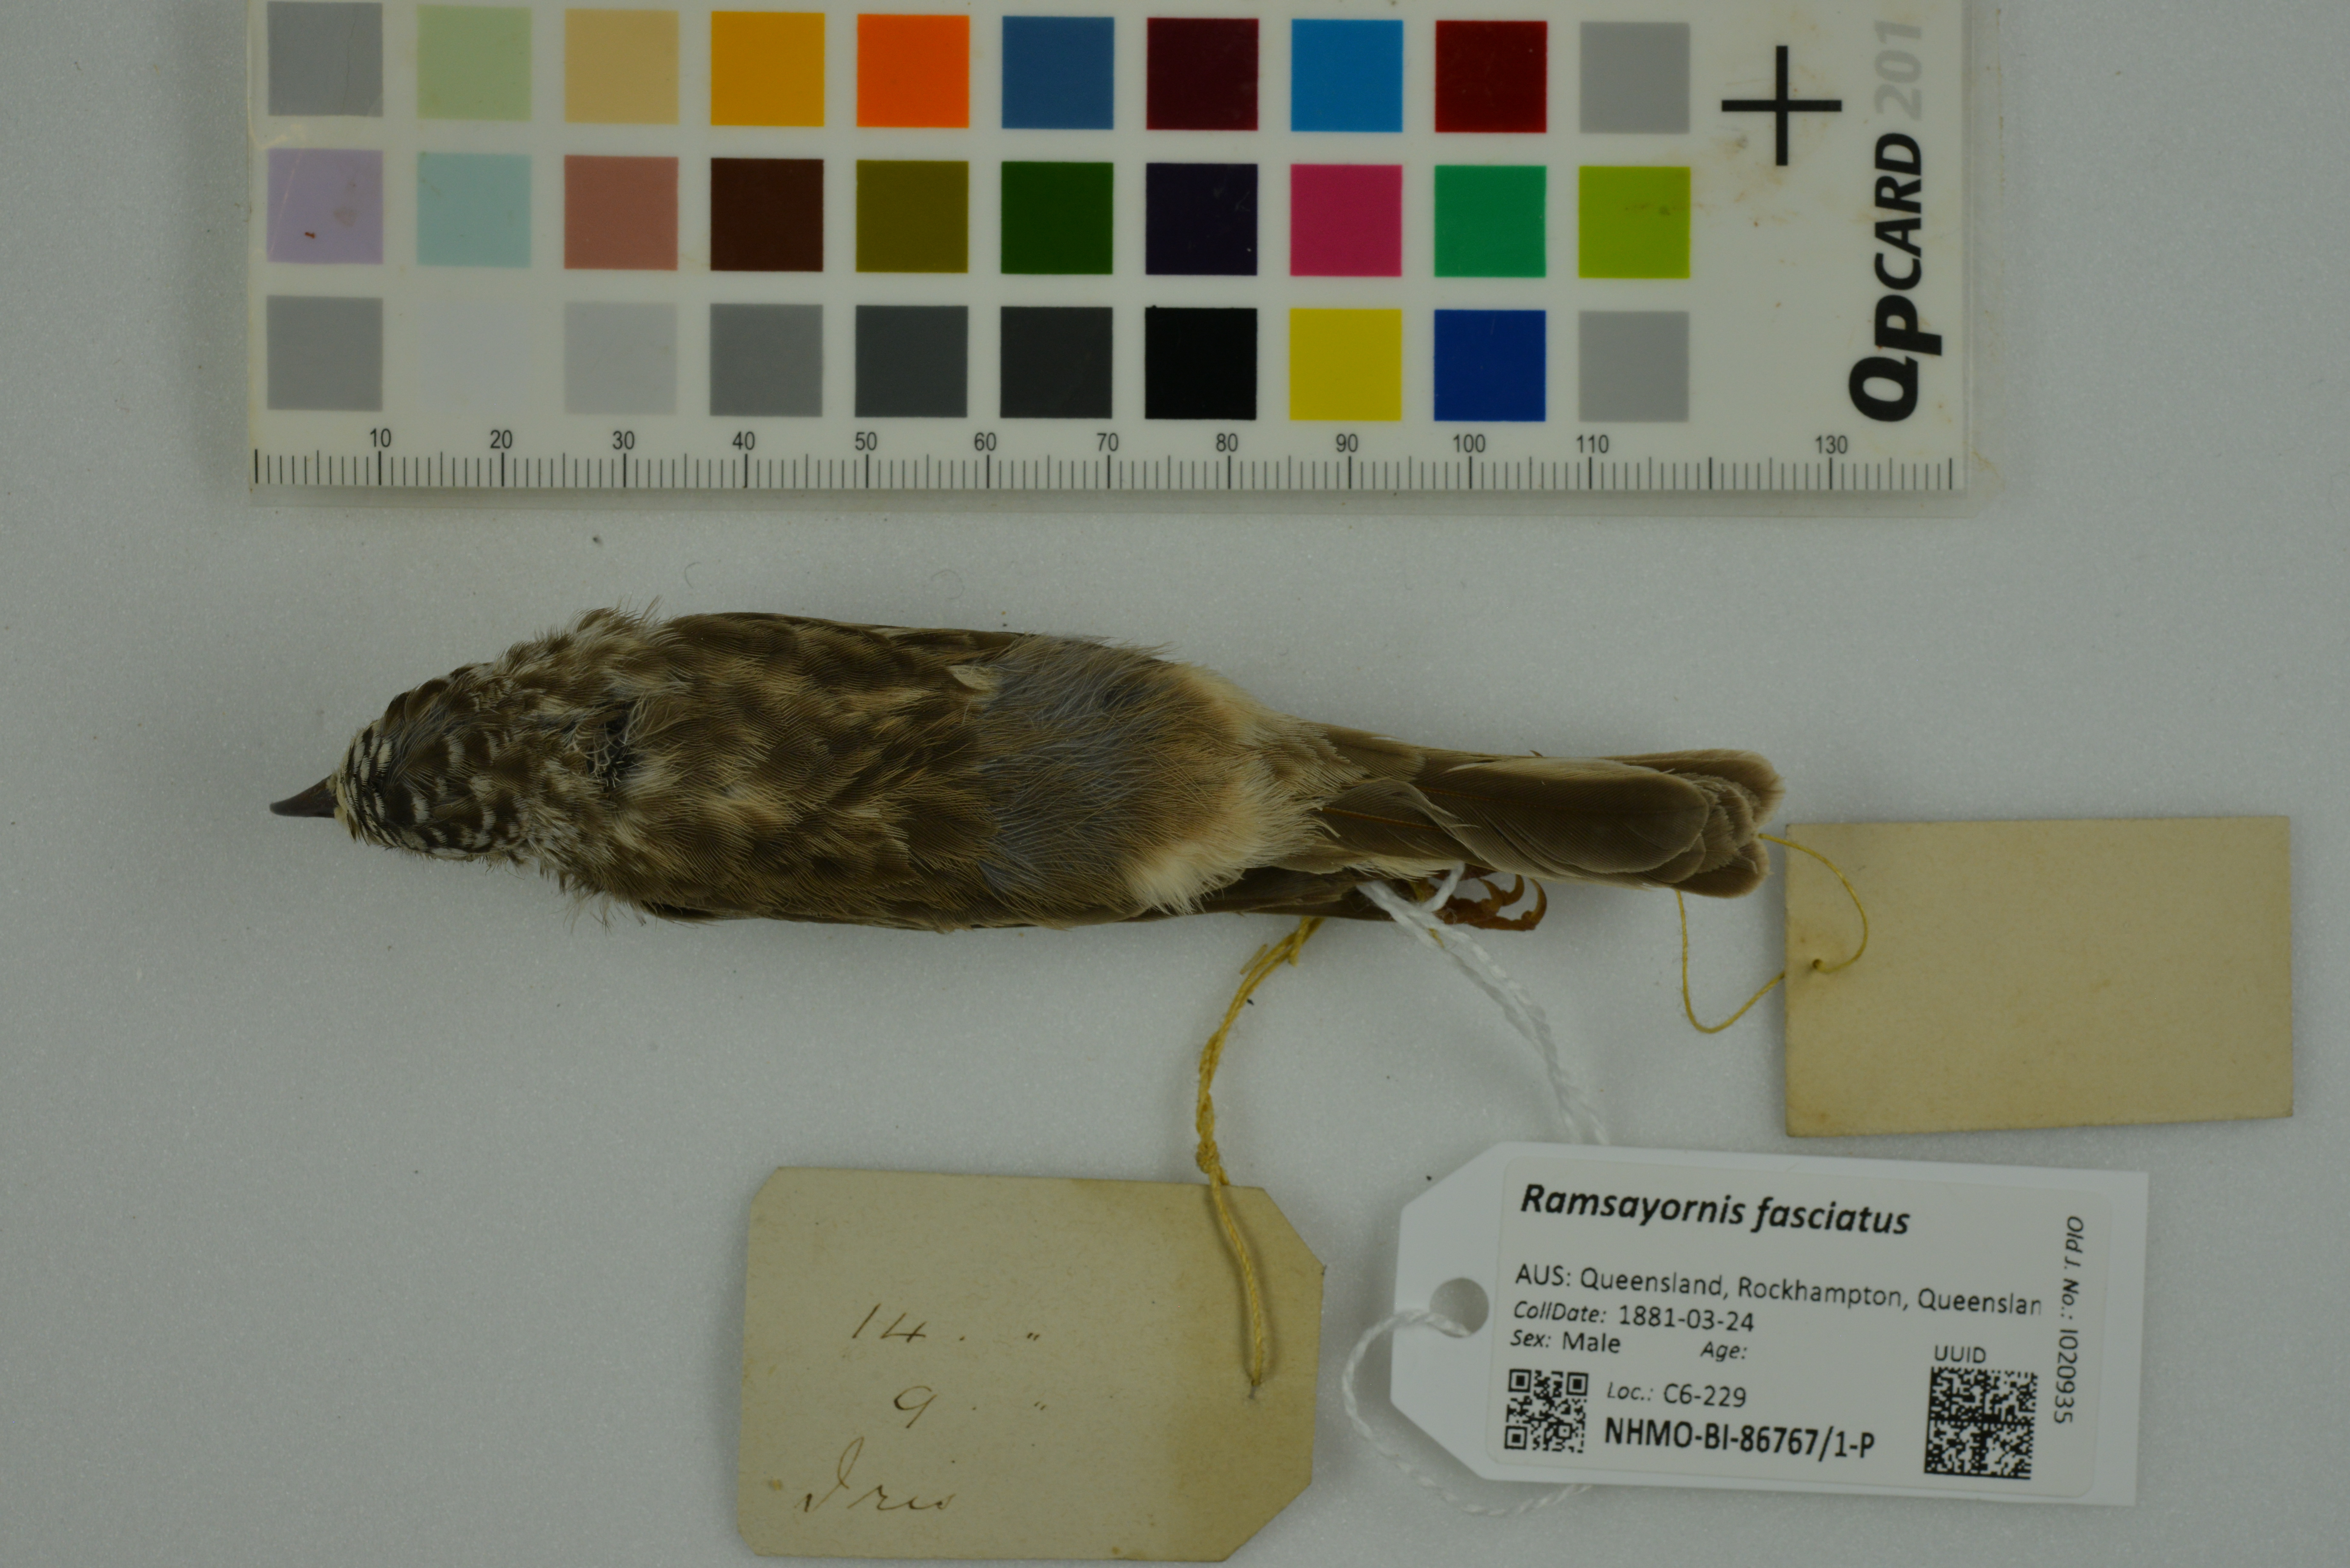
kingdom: Animalia
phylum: Chordata
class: Aves
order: Passeriformes
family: Meliphagidae
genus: Ramsayornis
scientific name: Ramsayornis fasciatus
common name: Bar-breasted honeyeater
